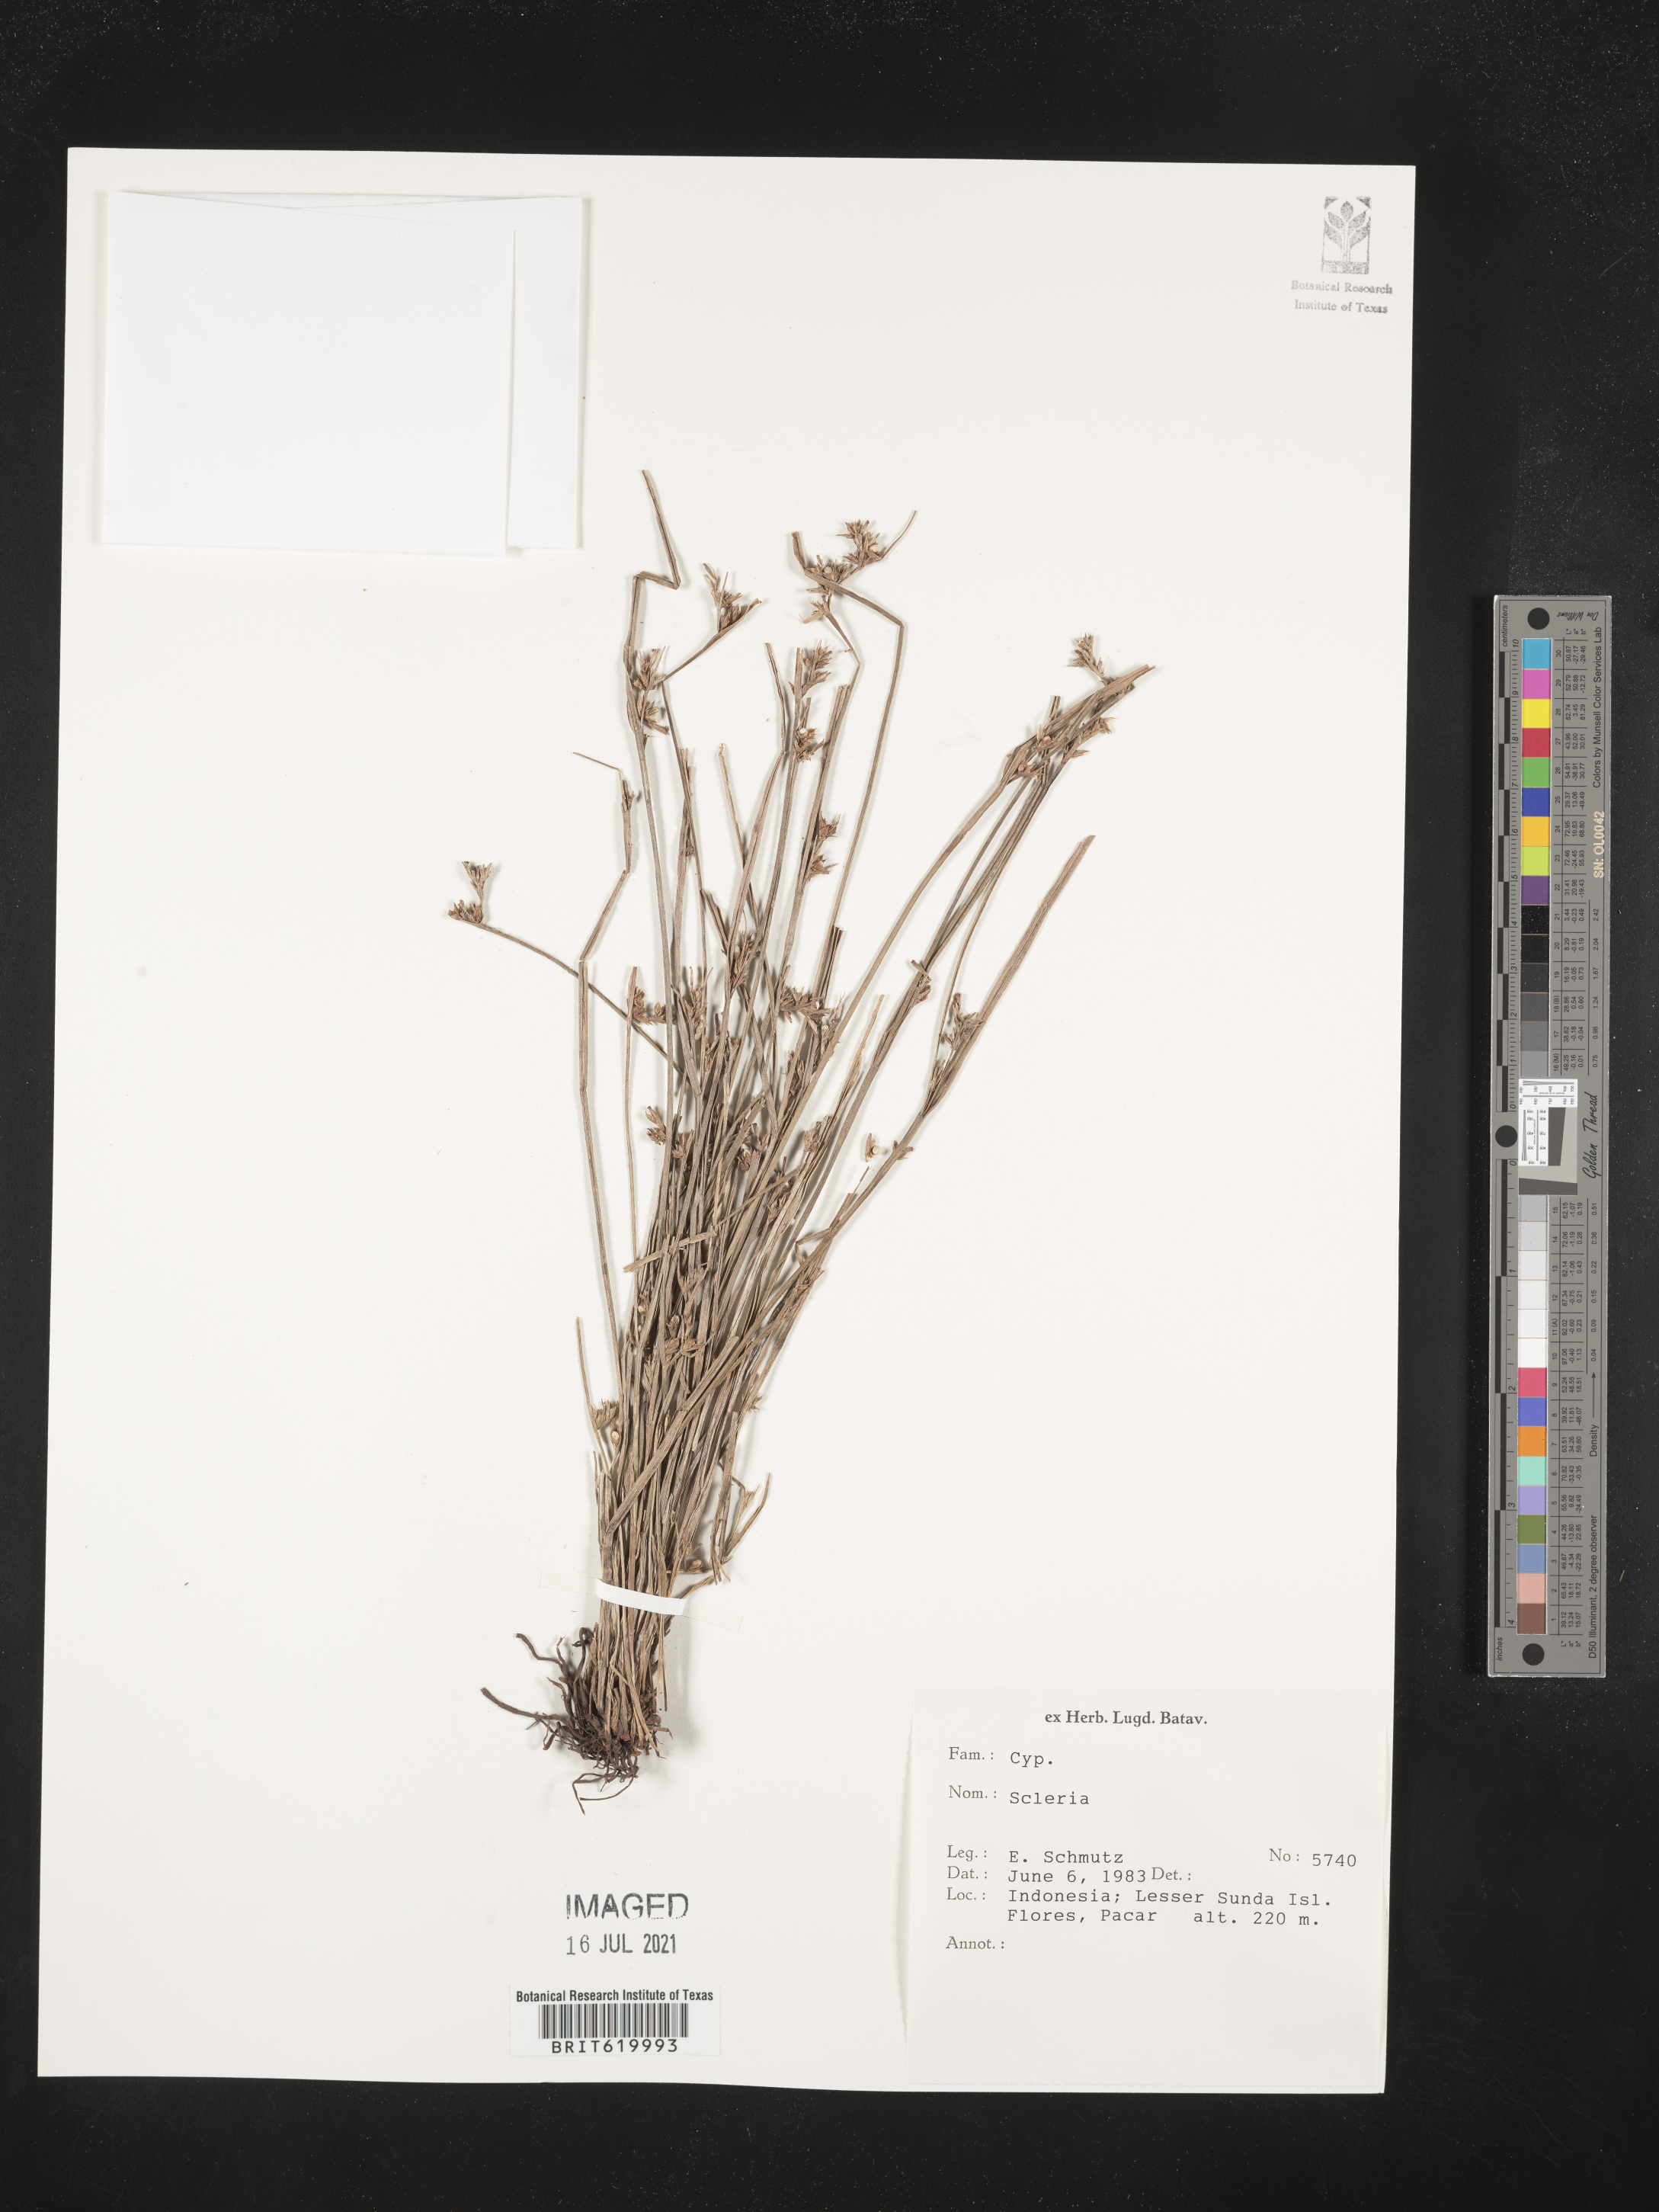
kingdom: Plantae
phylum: Tracheophyta
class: Liliopsida
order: Poales
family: Cyperaceae
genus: Scleria
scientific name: Scleria
